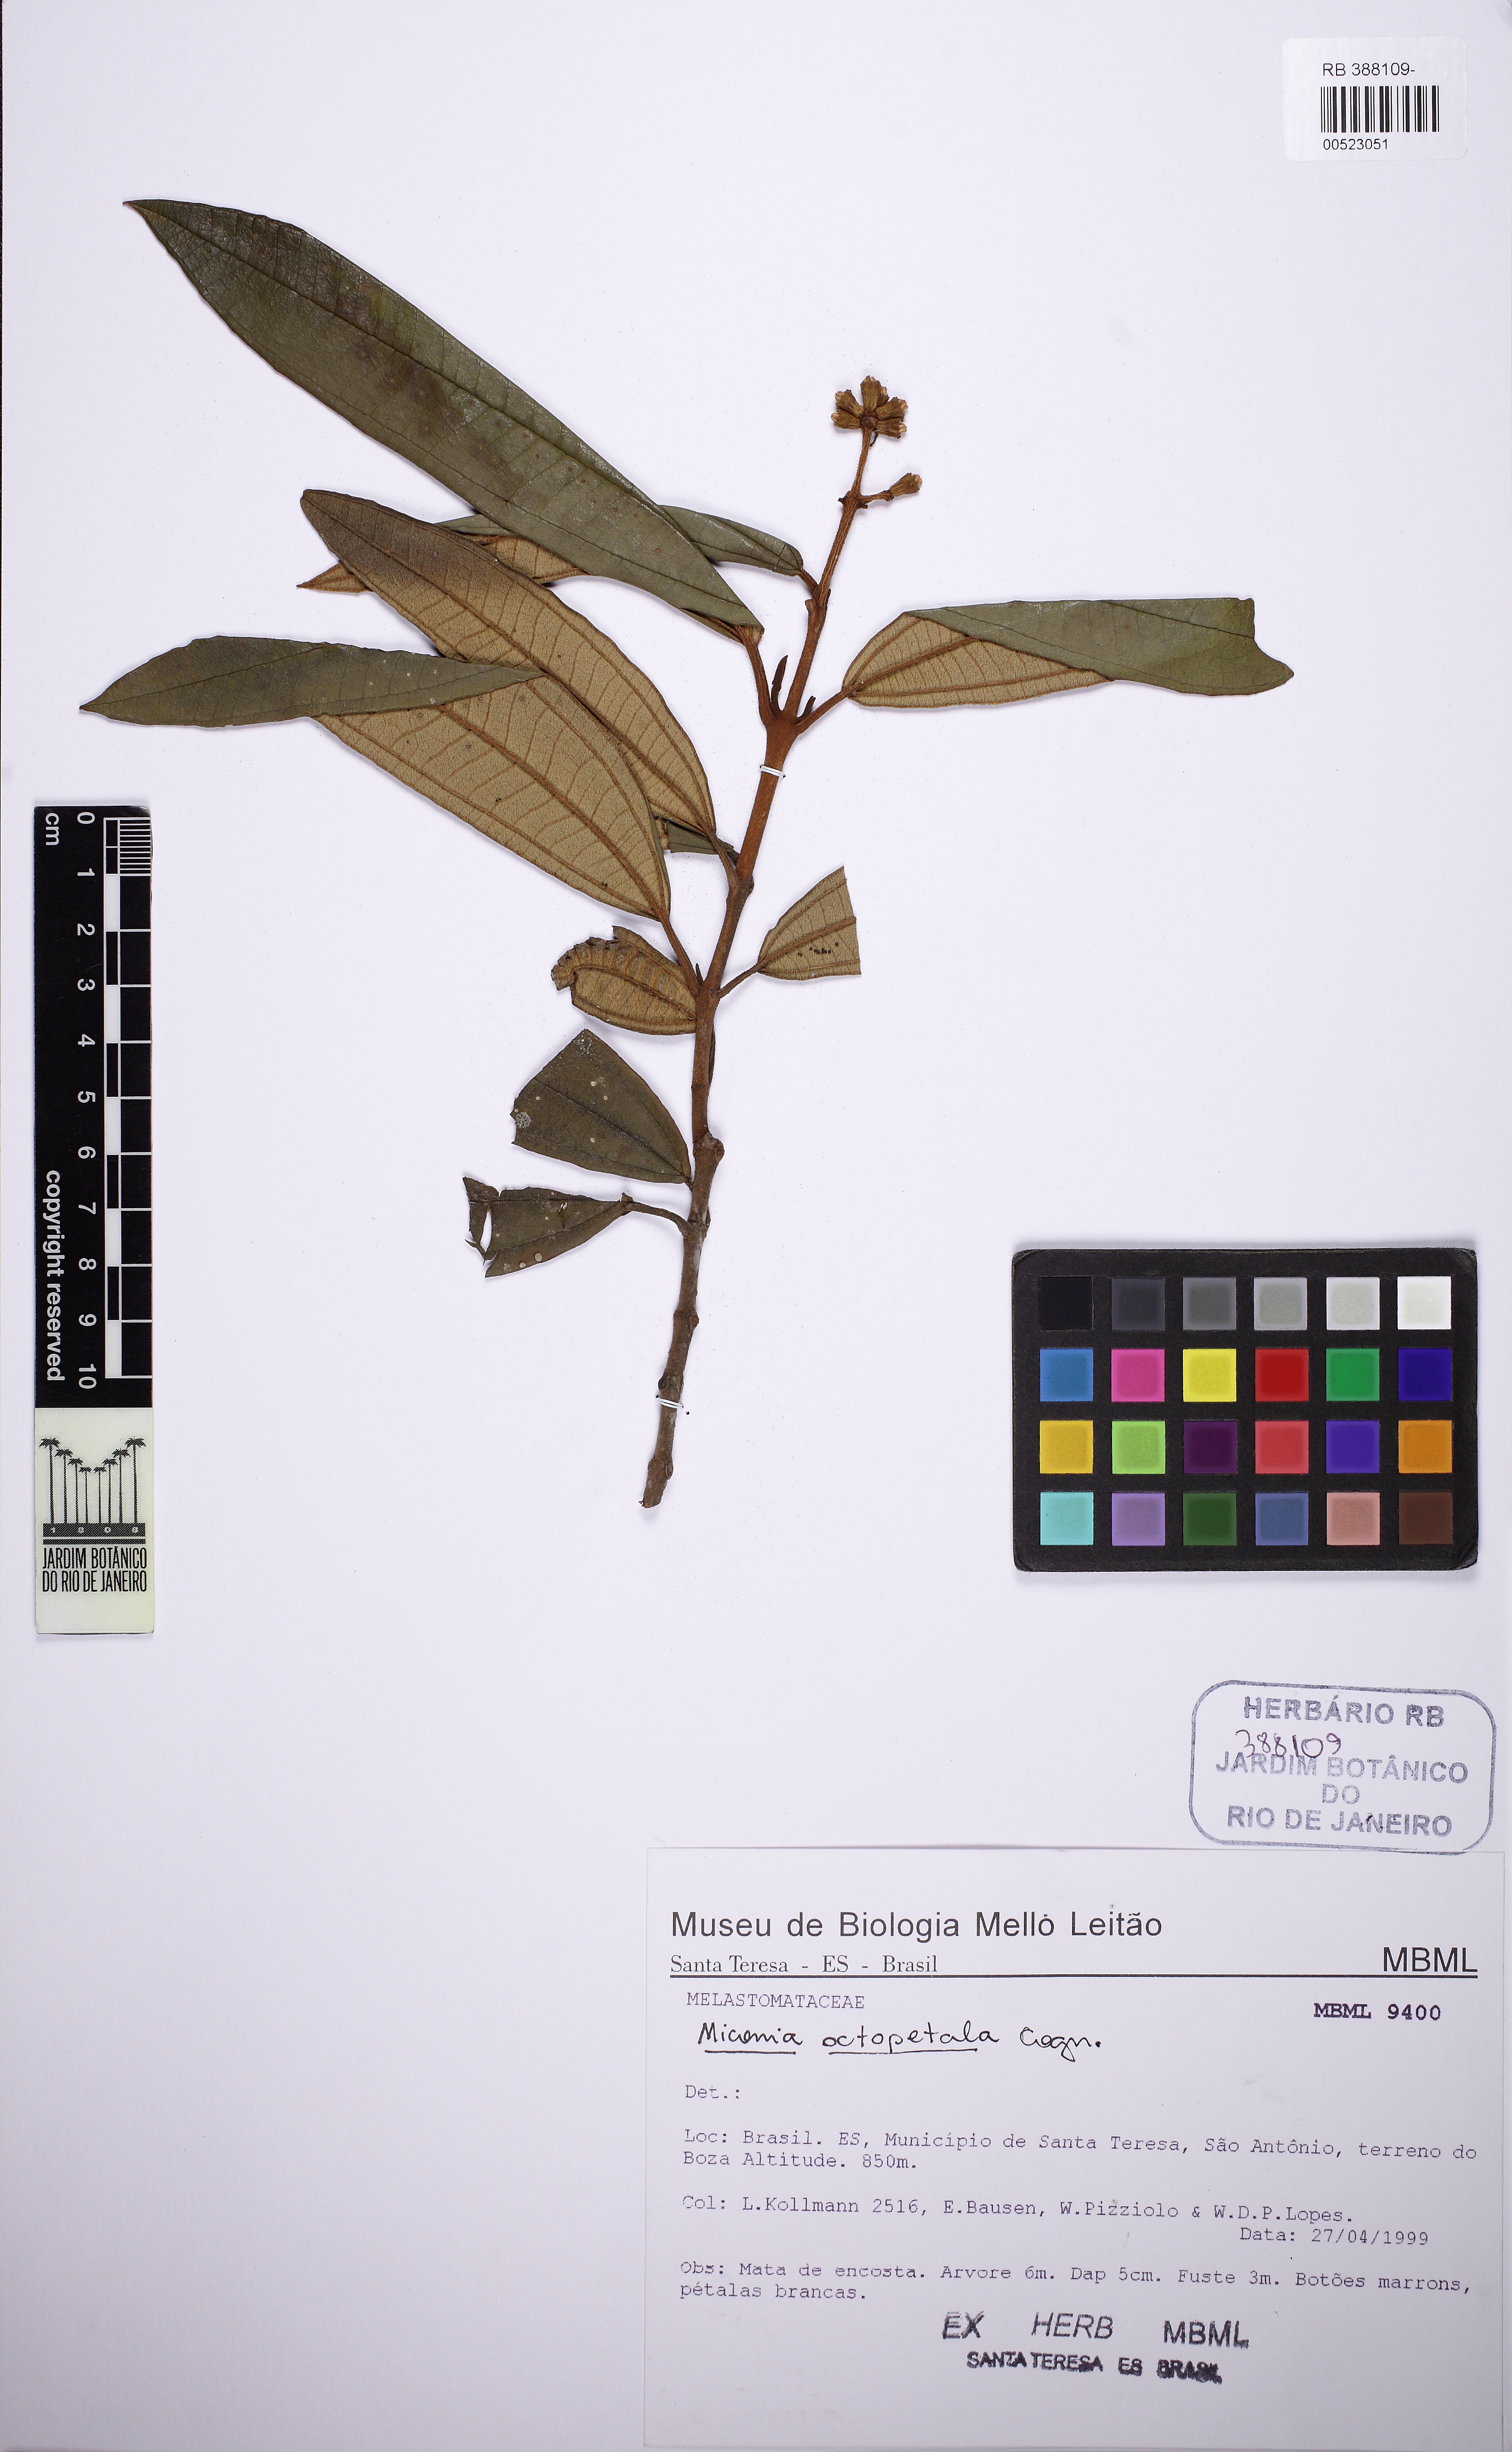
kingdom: Plantae
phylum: Tracheophyta
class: Magnoliopsida
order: Myrtales
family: Melastomataceae
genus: Miconia
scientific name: Miconia octopetala
